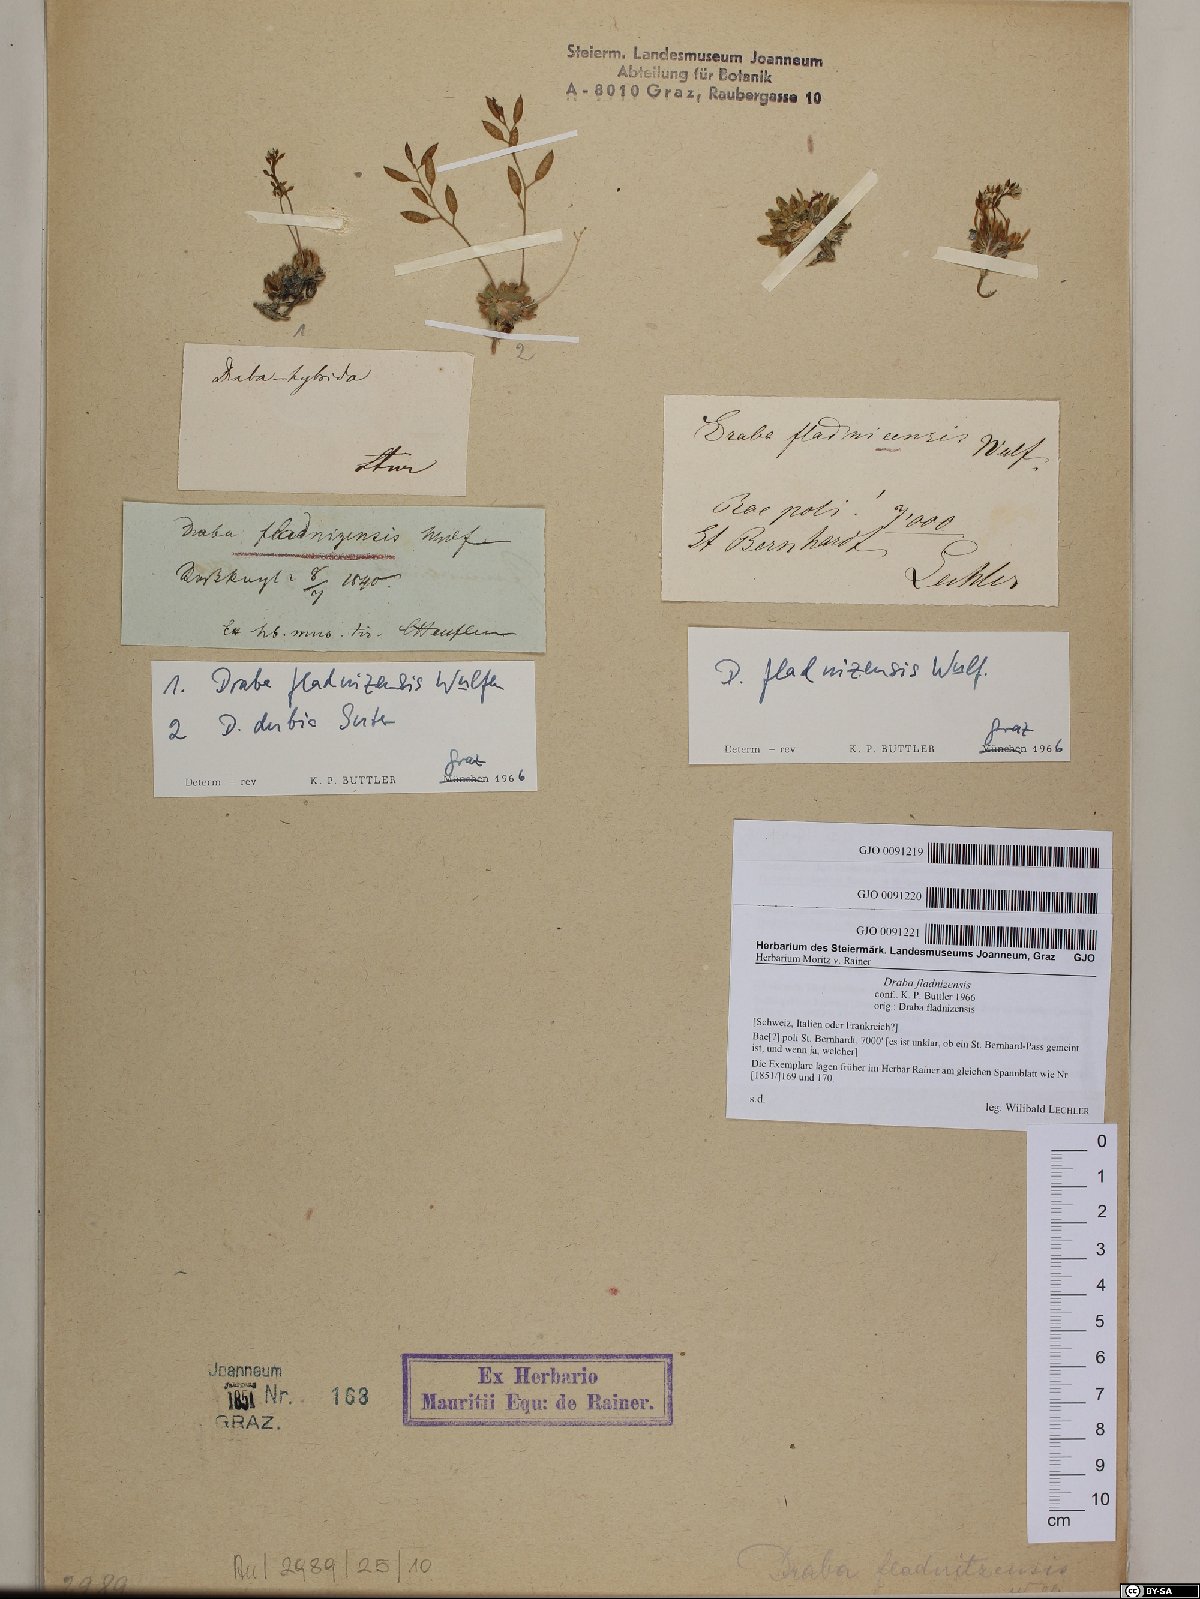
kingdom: Plantae
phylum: Tracheophyta
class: Magnoliopsida
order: Brassicales
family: Brassicaceae
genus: Draba
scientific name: Draba dubia
